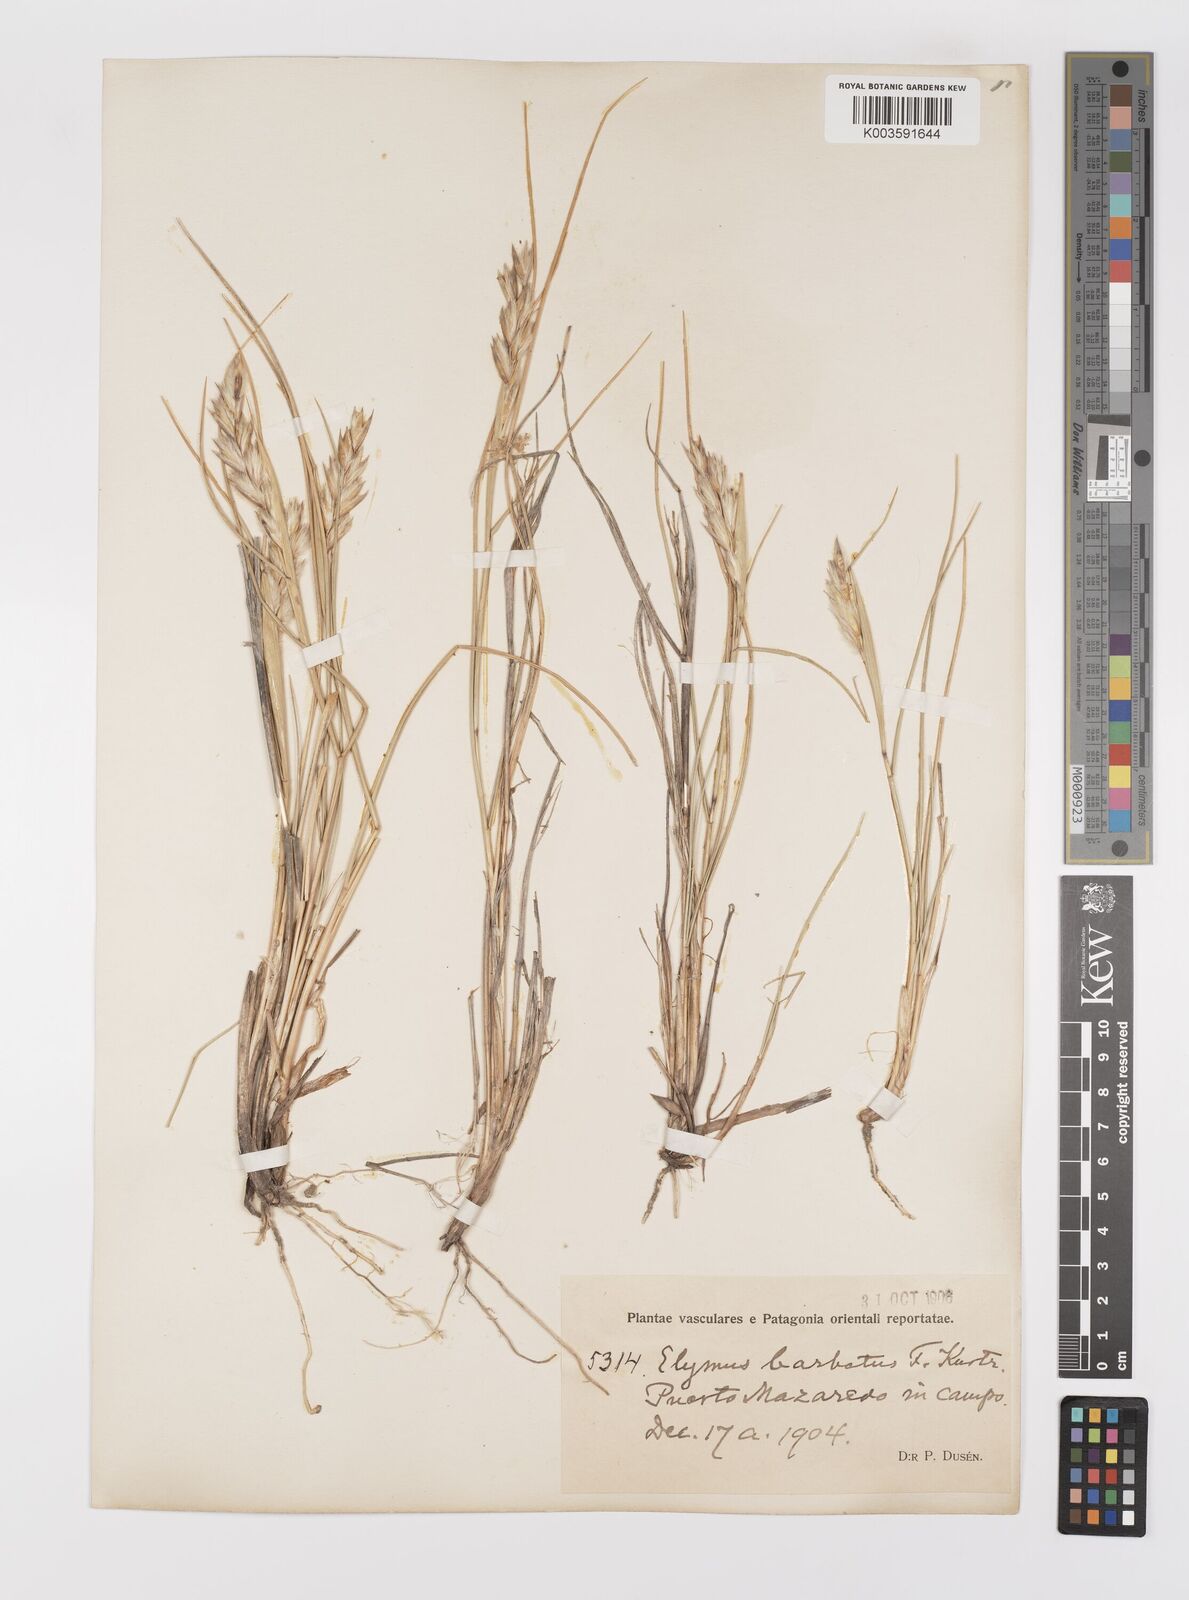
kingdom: Plantae
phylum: Tracheophyta
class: Liliopsida
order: Poales
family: Poaceae
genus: Leymus
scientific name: Leymus erianthus
